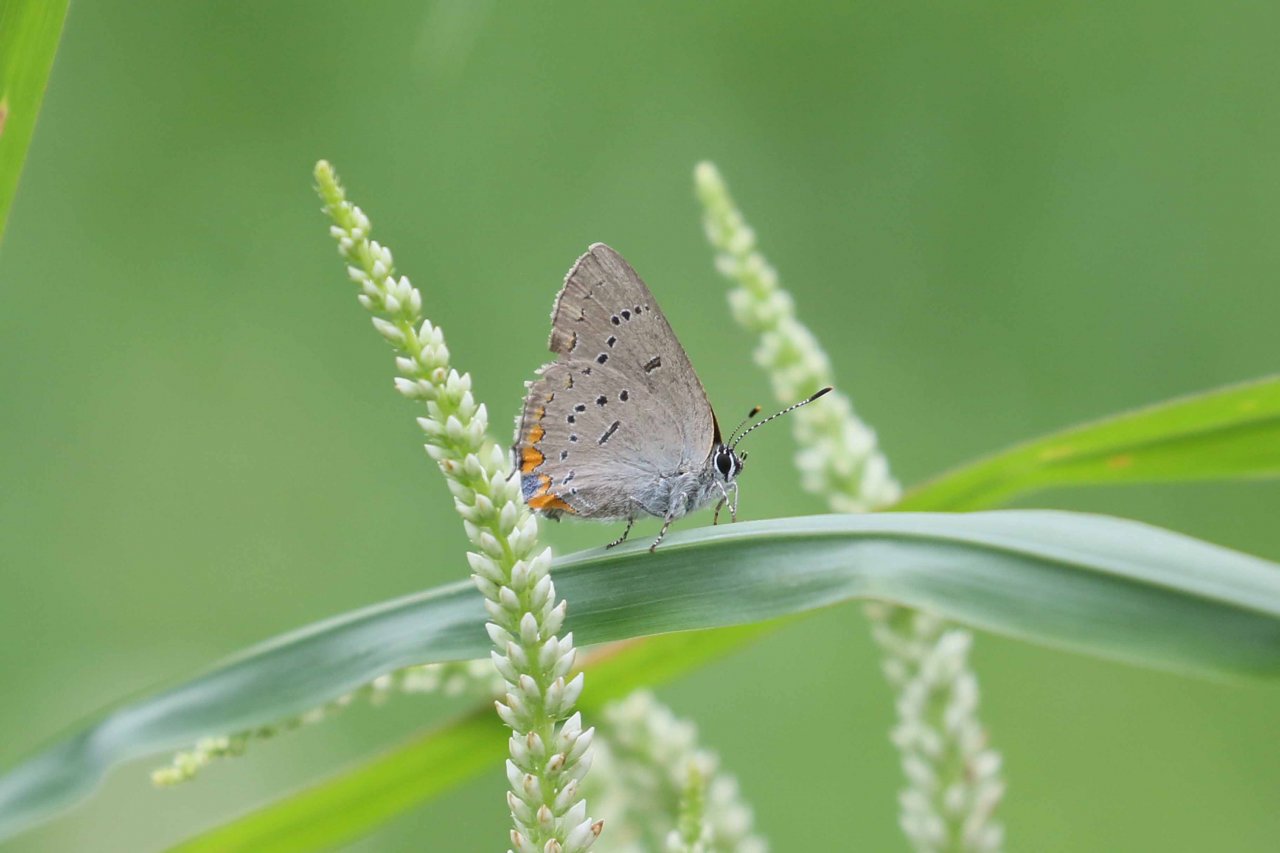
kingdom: Animalia
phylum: Arthropoda
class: Insecta
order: Lepidoptera
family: Lycaenidae
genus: Strymon
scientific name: Strymon acadica
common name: Acadian Hairstreak
